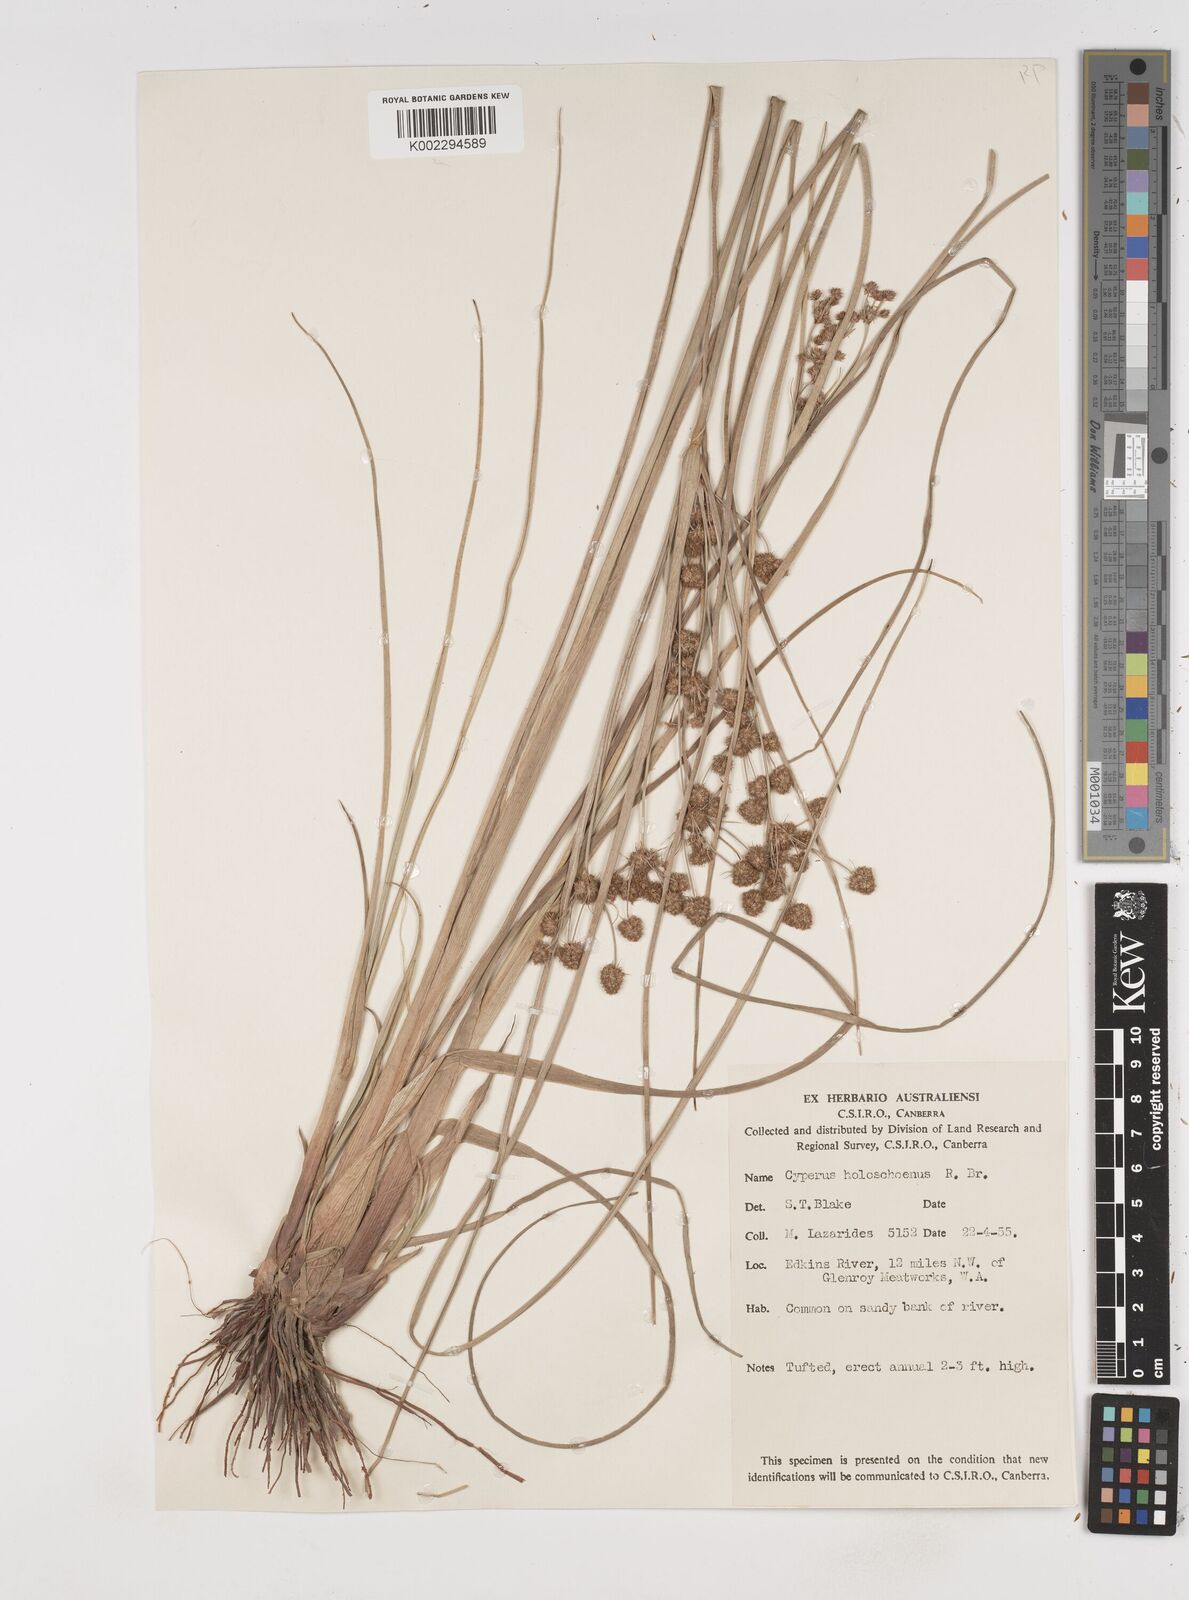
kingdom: Plantae
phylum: Tracheophyta
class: Liliopsida
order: Poales
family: Cyperaceae
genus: Cyperus
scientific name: Cyperus holoschoenus
